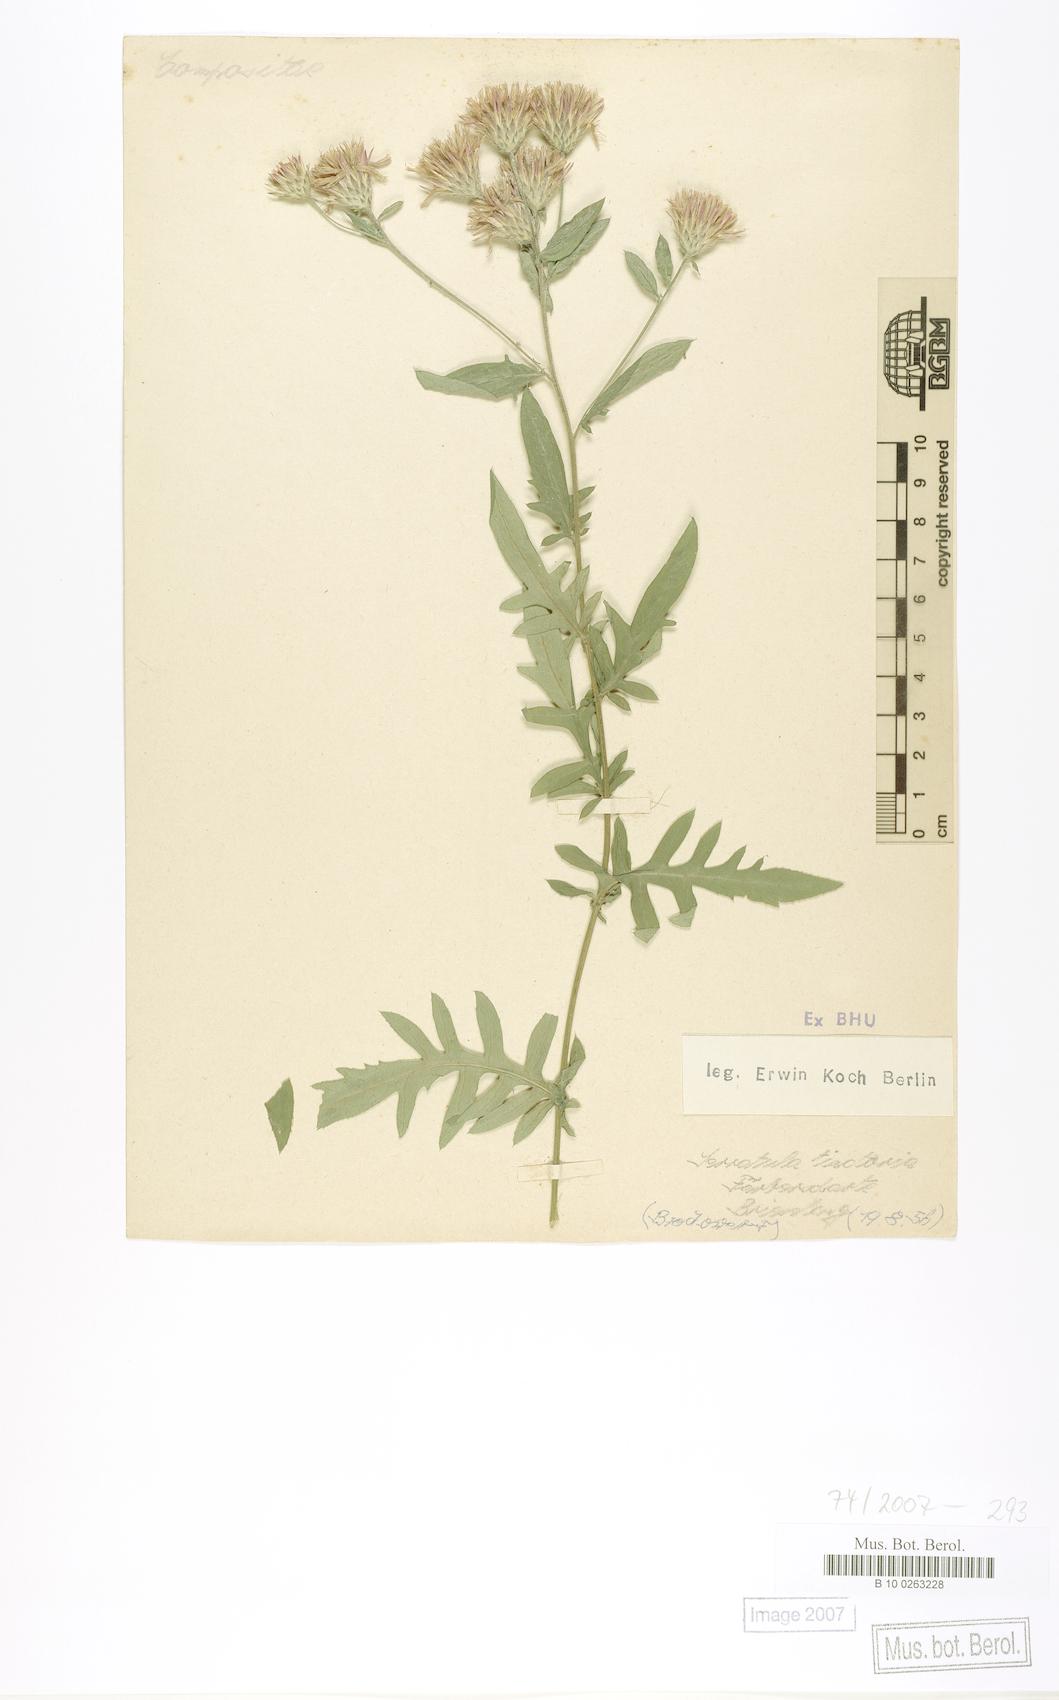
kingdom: Plantae
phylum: Tracheophyta
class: Magnoliopsida
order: Asterales
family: Asteraceae
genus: Serratula
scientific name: Serratula tinctoria
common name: Saw-wort
